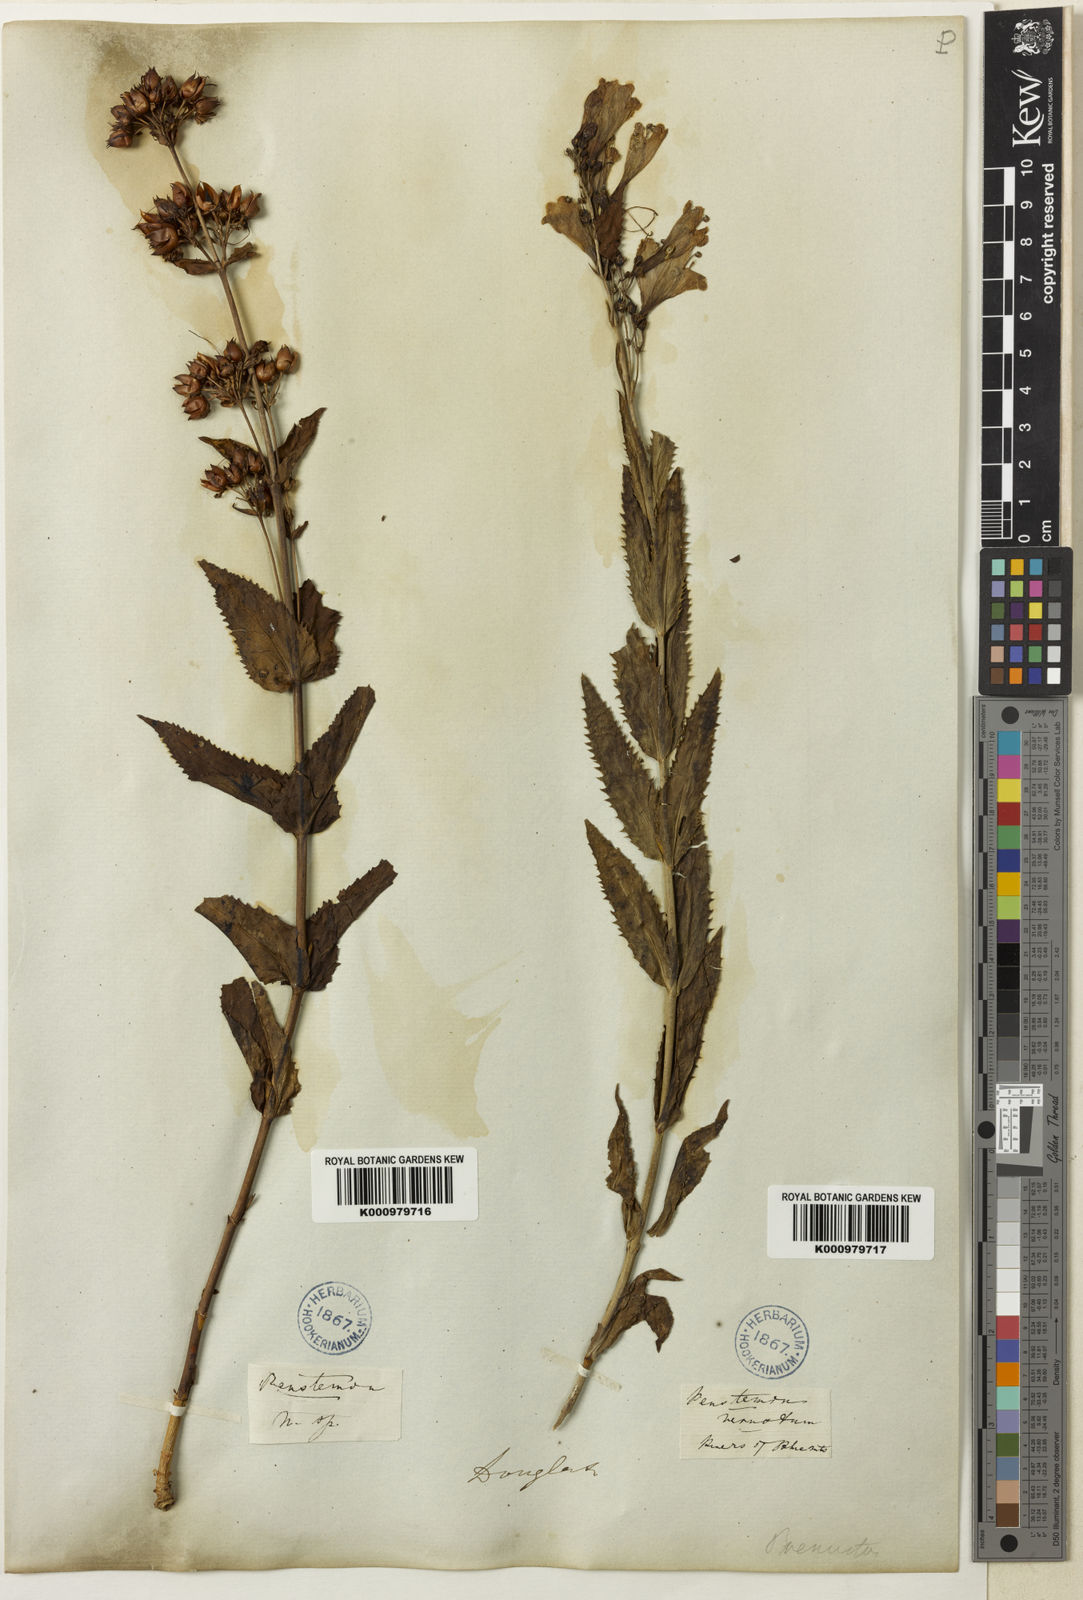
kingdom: Plantae
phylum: Tracheophyta
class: Magnoliopsida
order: Lamiales
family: Plantaginaceae
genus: Penstemon
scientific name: Penstemon
